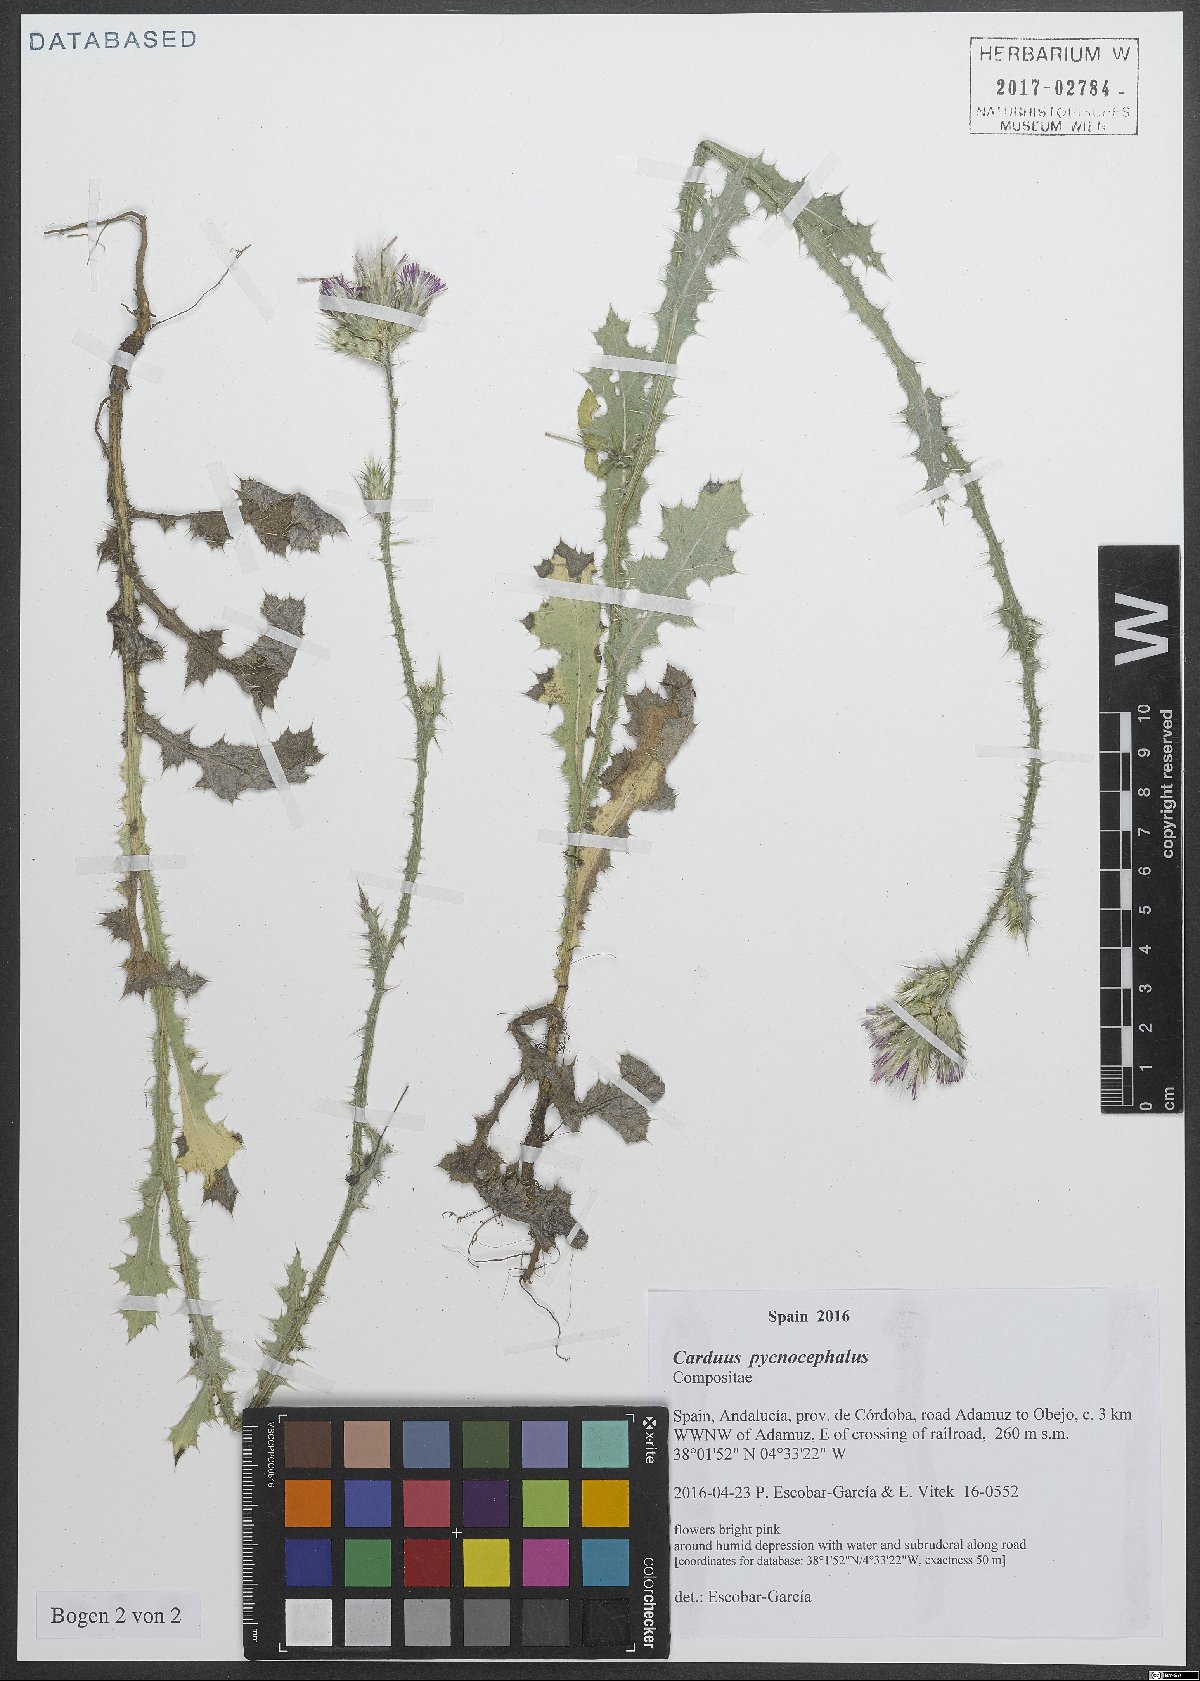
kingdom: Plantae
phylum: Tracheophyta
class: Magnoliopsida
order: Asterales
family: Asteraceae
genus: Carduus
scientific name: Carduus pycnocephalus
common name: Plymouth thistle
